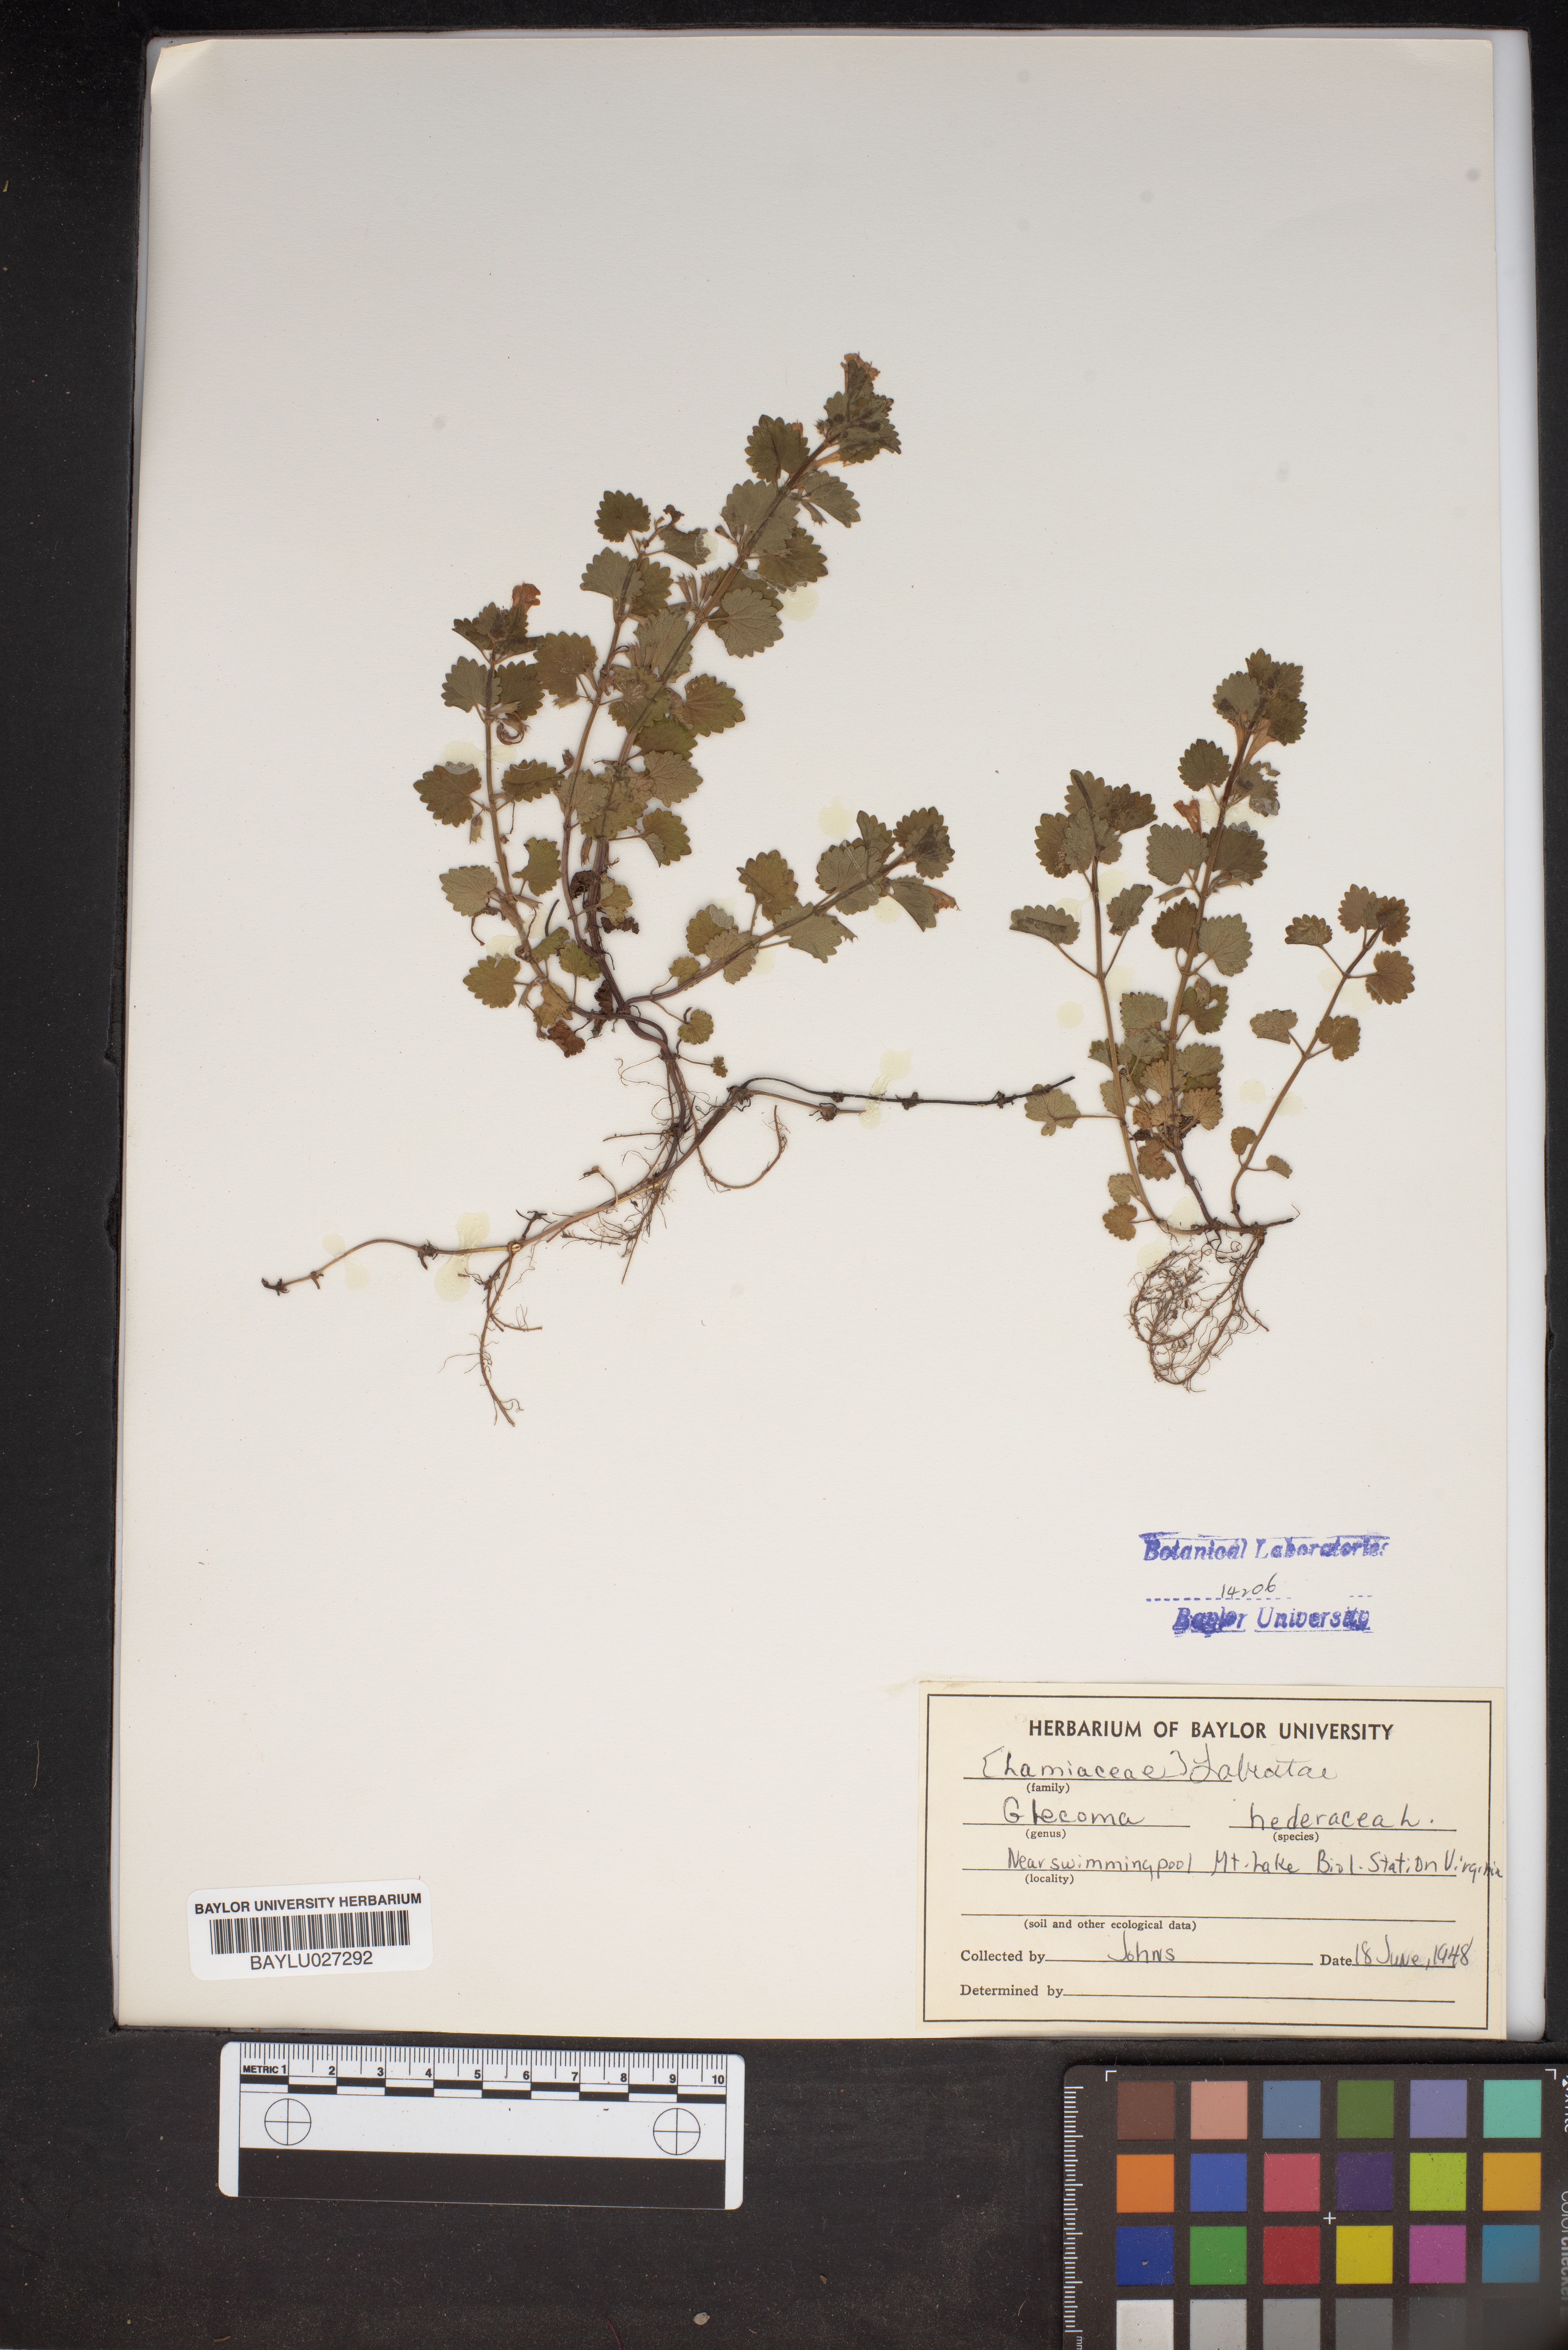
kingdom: Plantae
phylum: Tracheophyta
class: Magnoliopsida
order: Lamiales
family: Lamiaceae
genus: Glechoma
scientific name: Glechoma hederacea
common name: Ground ivy
